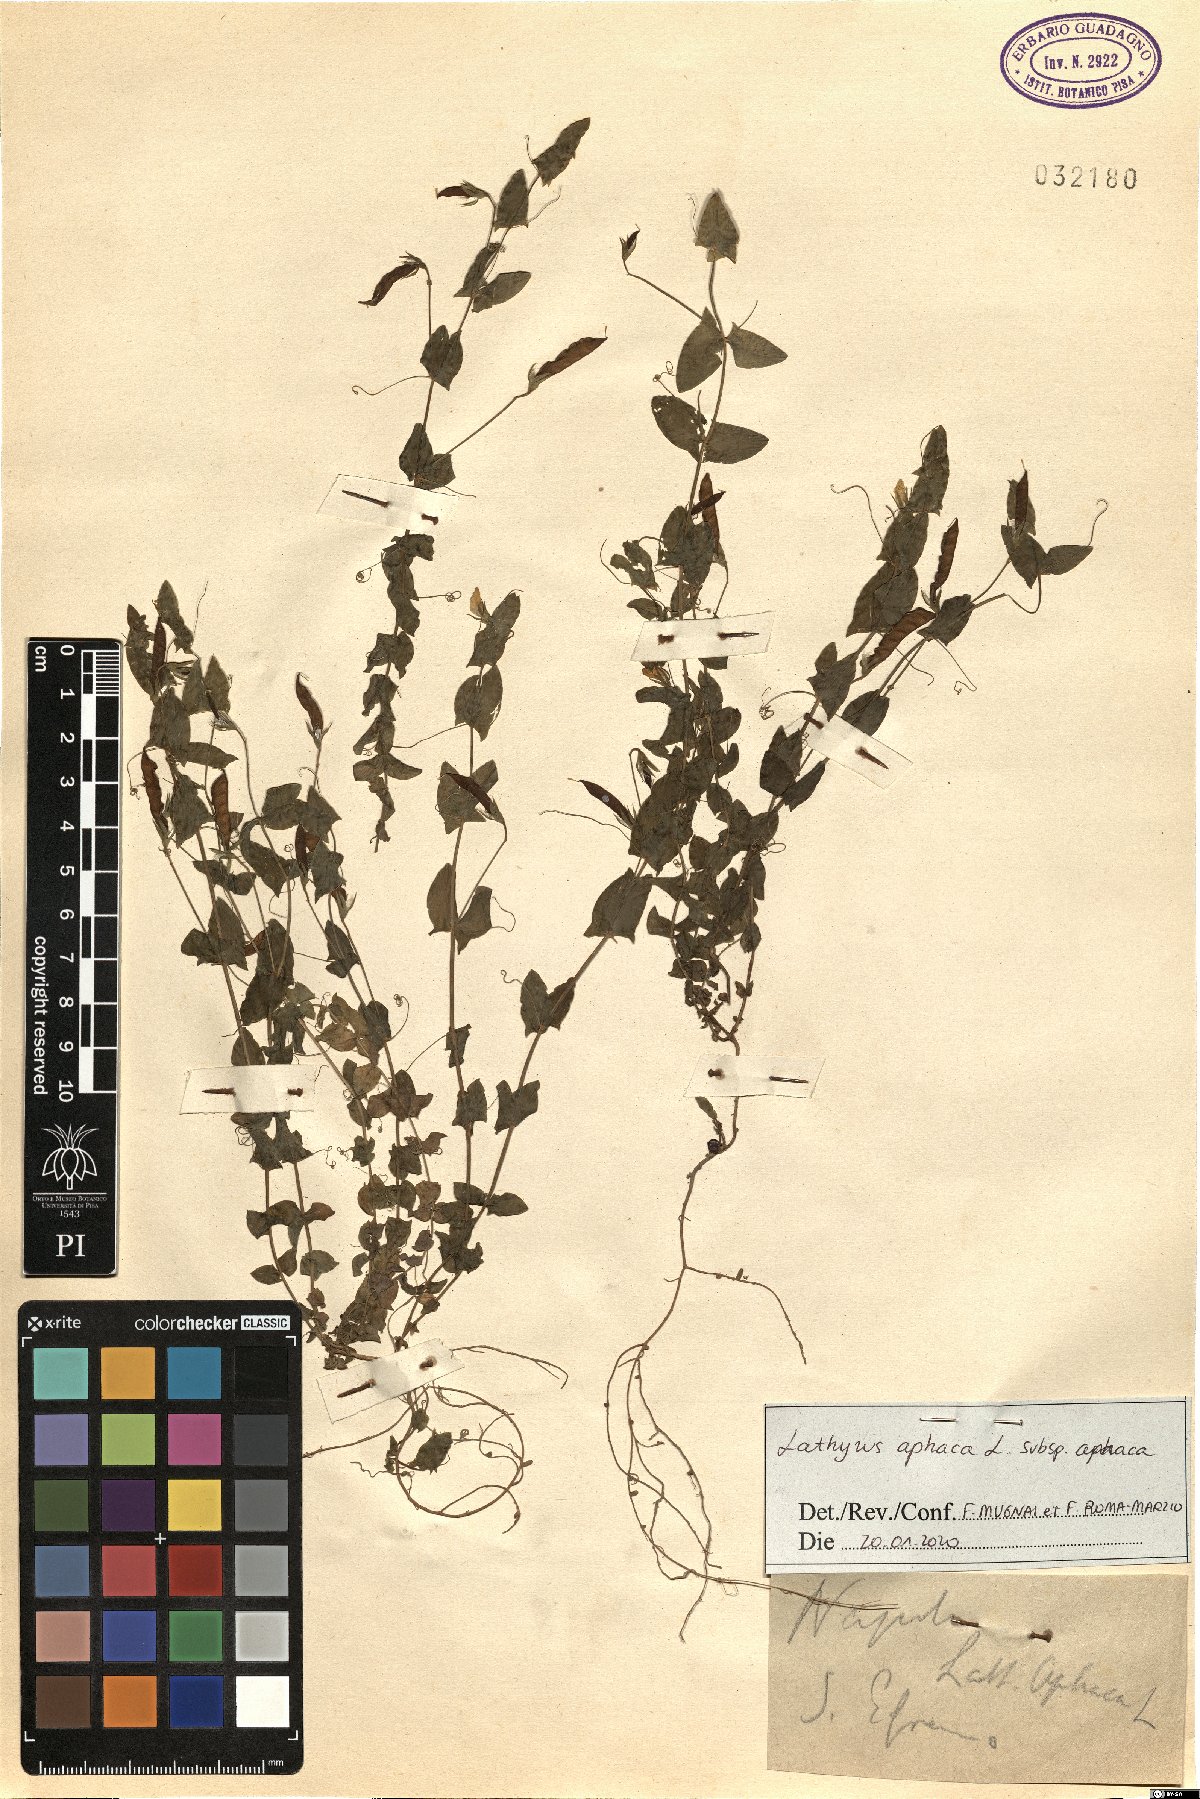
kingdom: Plantae
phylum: Tracheophyta
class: Magnoliopsida
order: Fabales
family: Fabaceae
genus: Lathyrus
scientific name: Lathyrus aphaca
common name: Yellow vetchling
